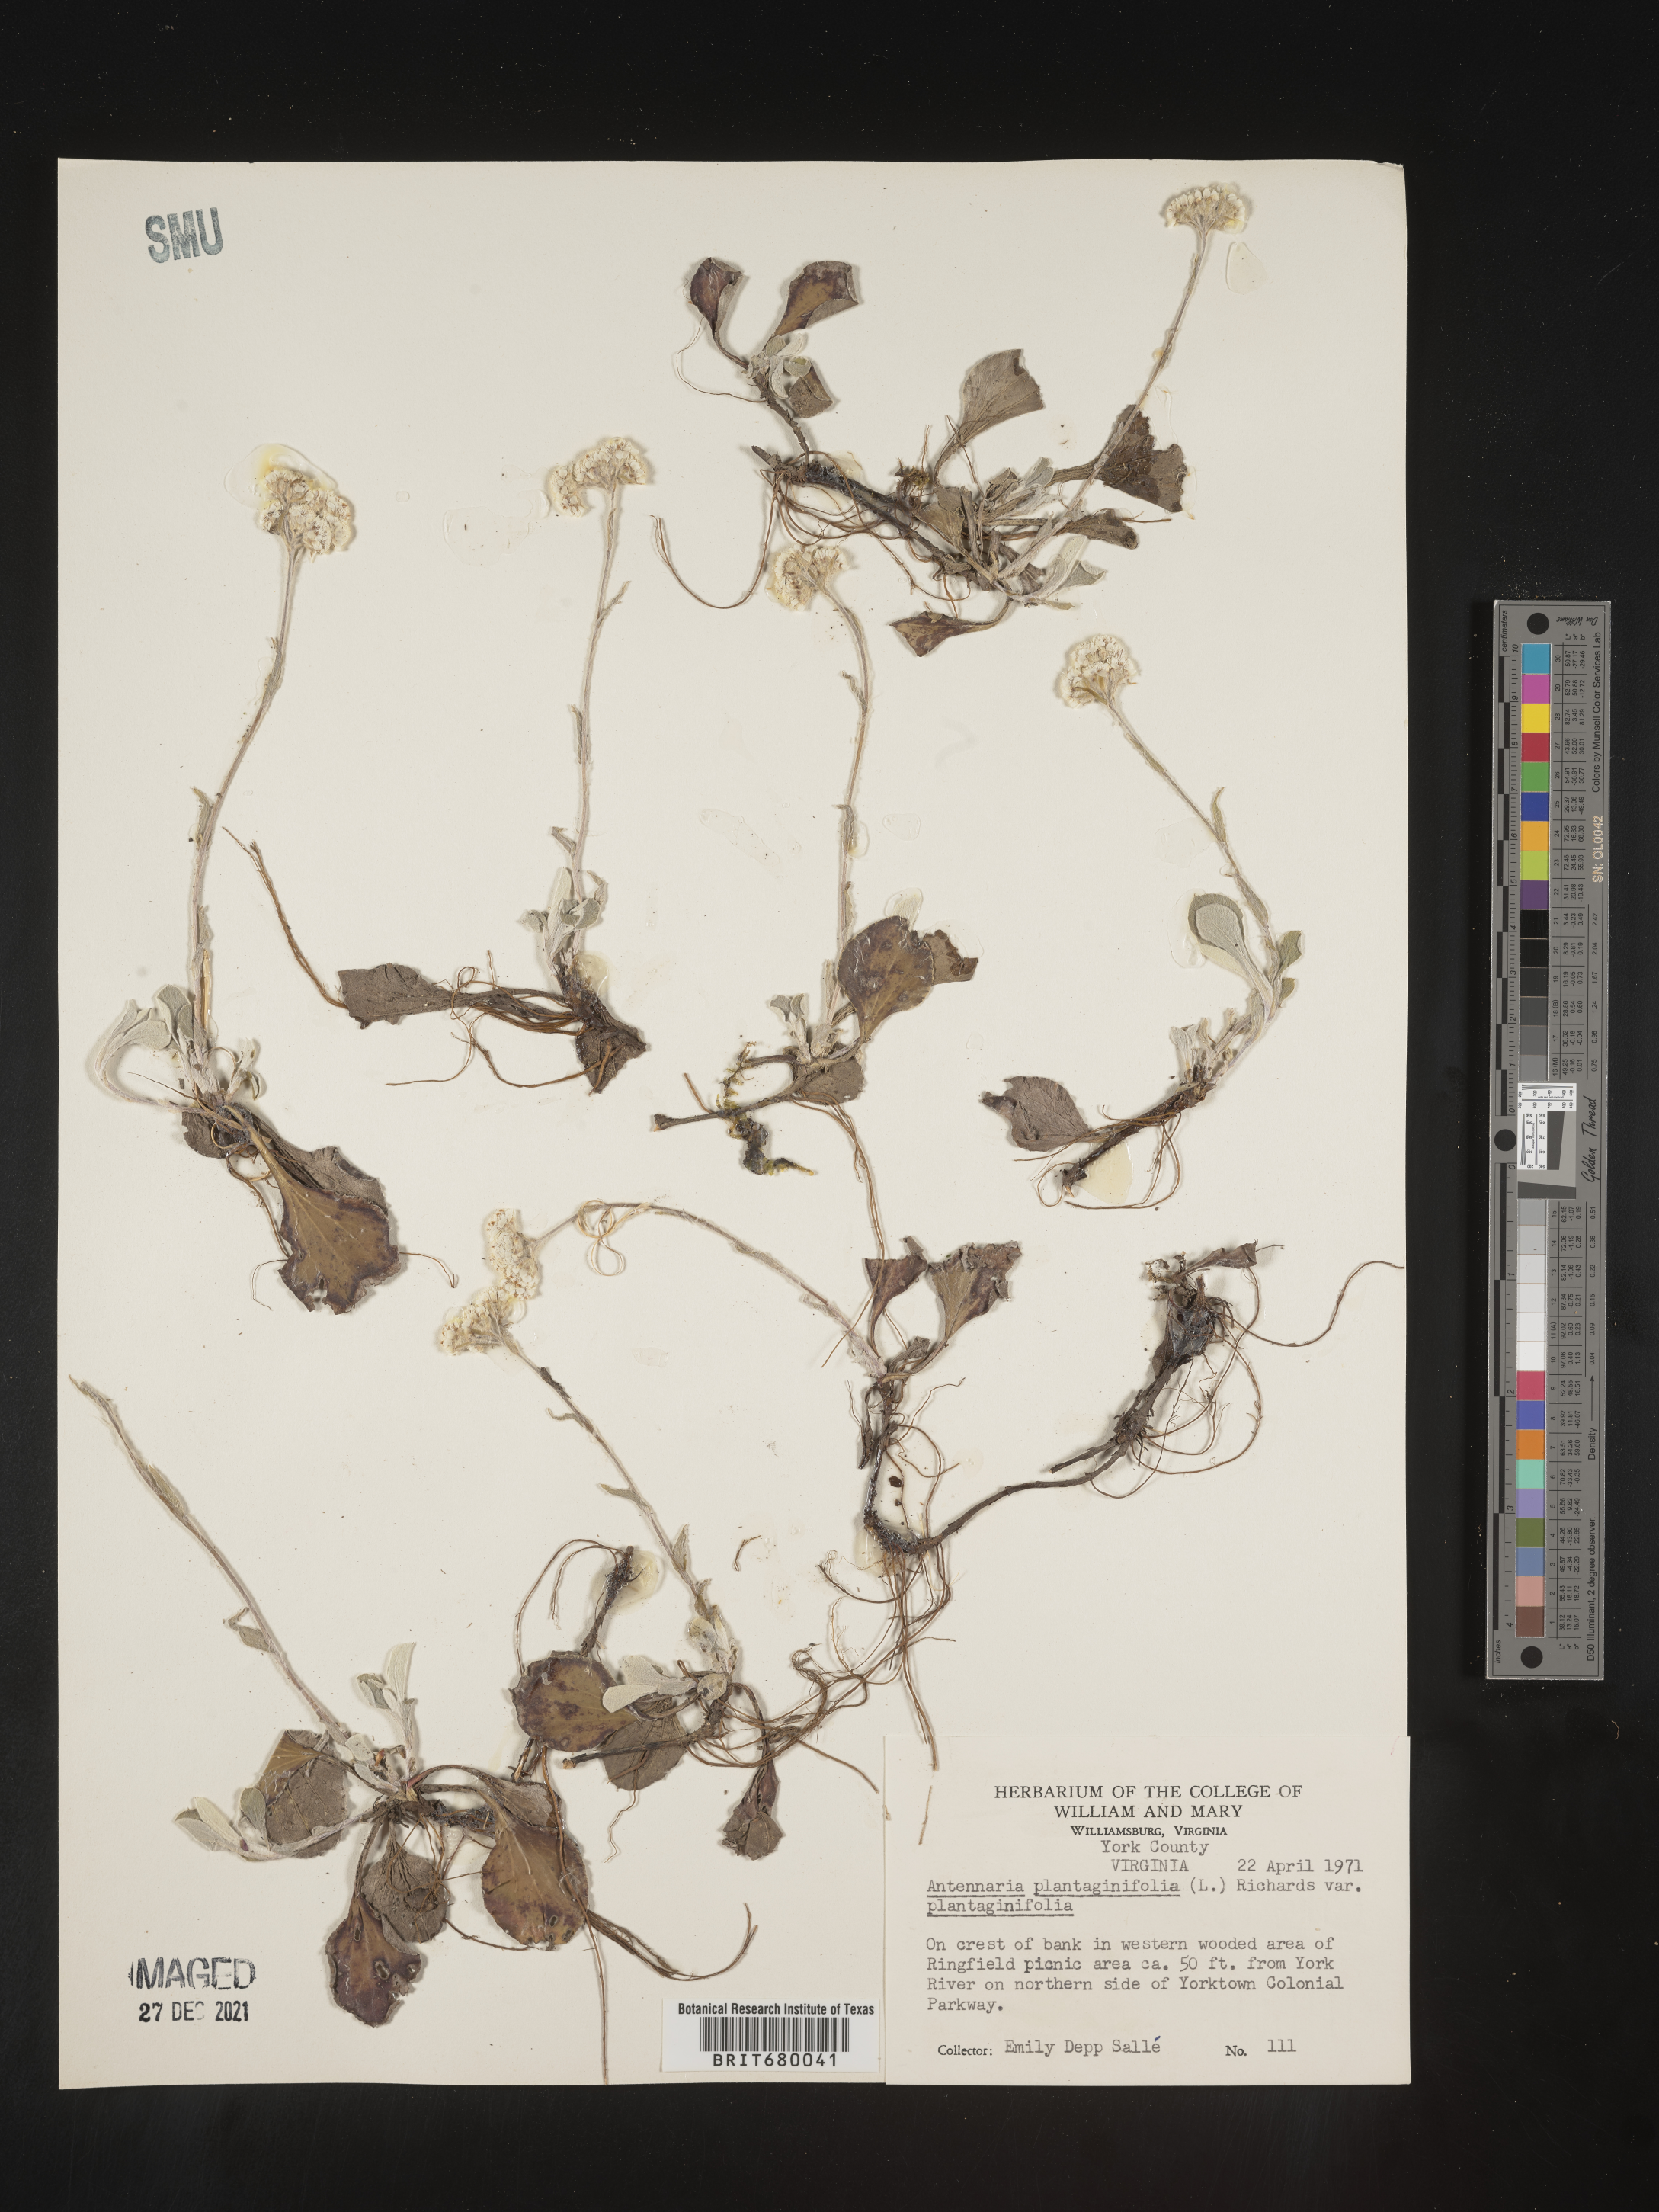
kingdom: Plantae
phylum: Tracheophyta
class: Magnoliopsida
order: Asterales
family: Asteraceae
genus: Antennaria
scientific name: Antennaria plantaginifolia
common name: Plantain-leaved pussytoes
